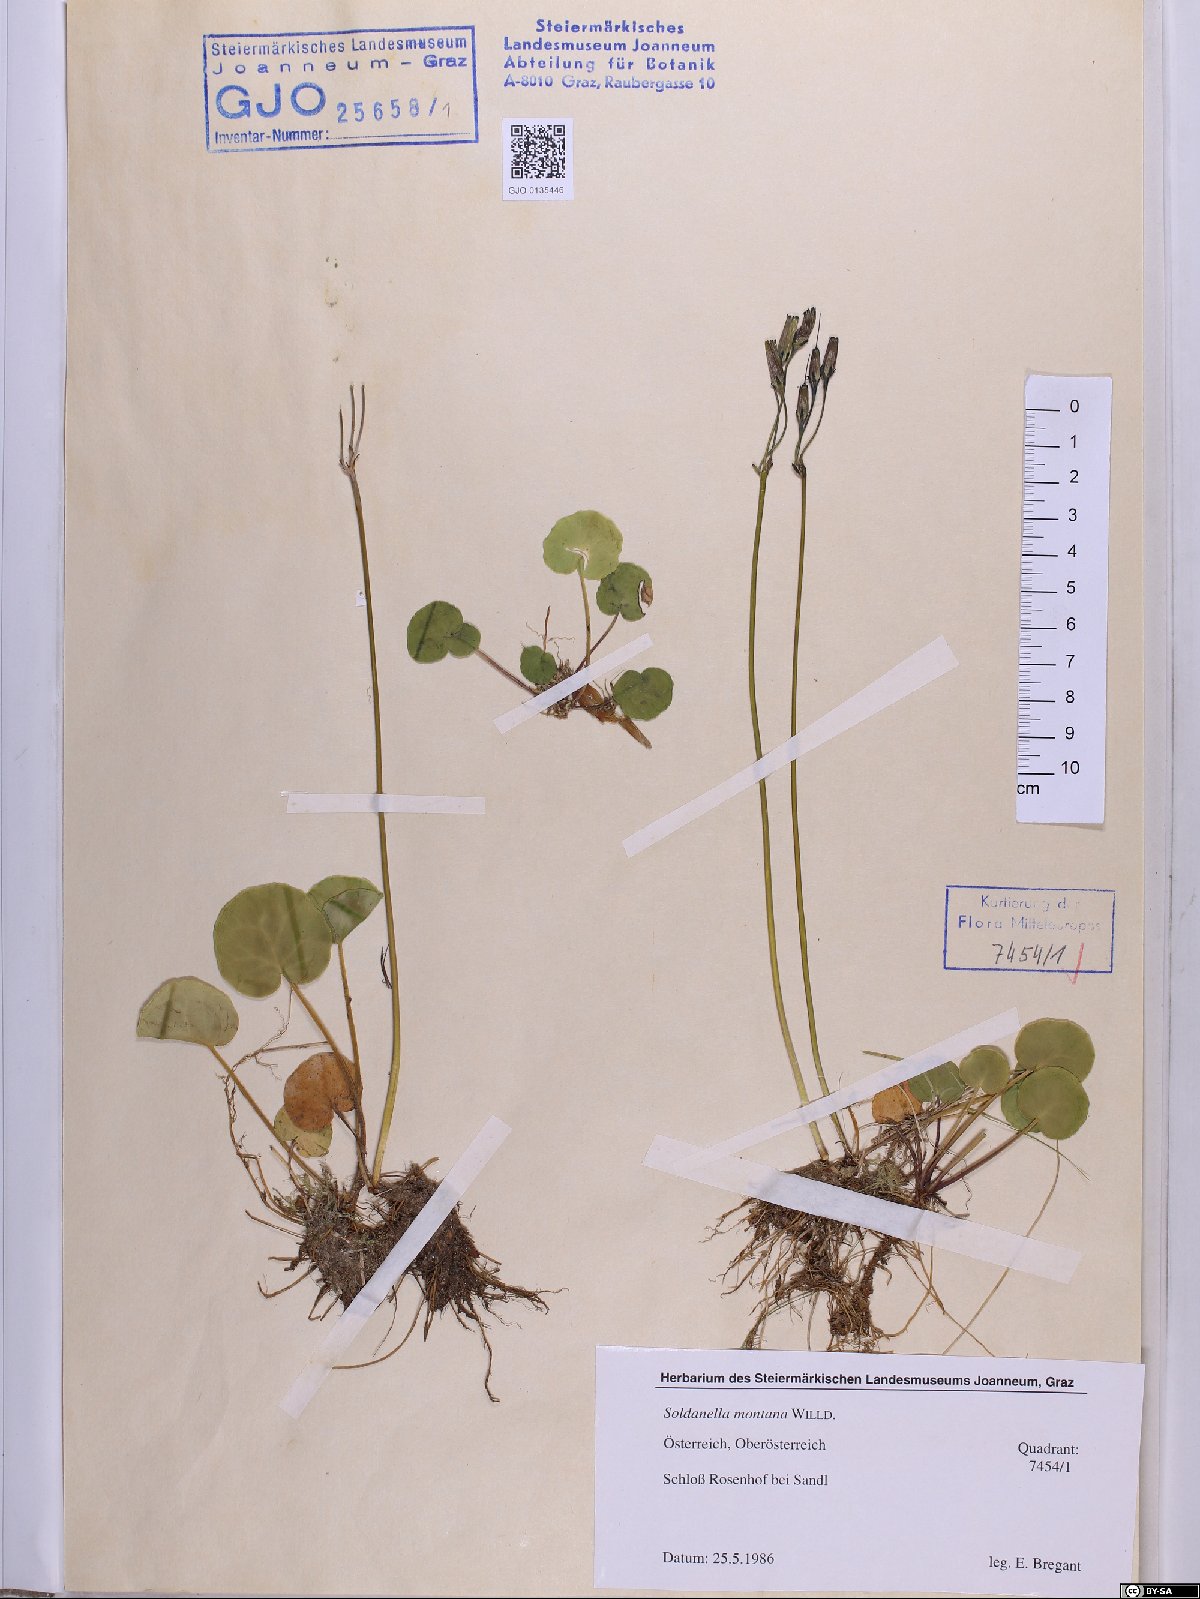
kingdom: Plantae
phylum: Tracheophyta
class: Magnoliopsida
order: Ericales
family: Primulaceae
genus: Soldanella
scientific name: Soldanella montana
